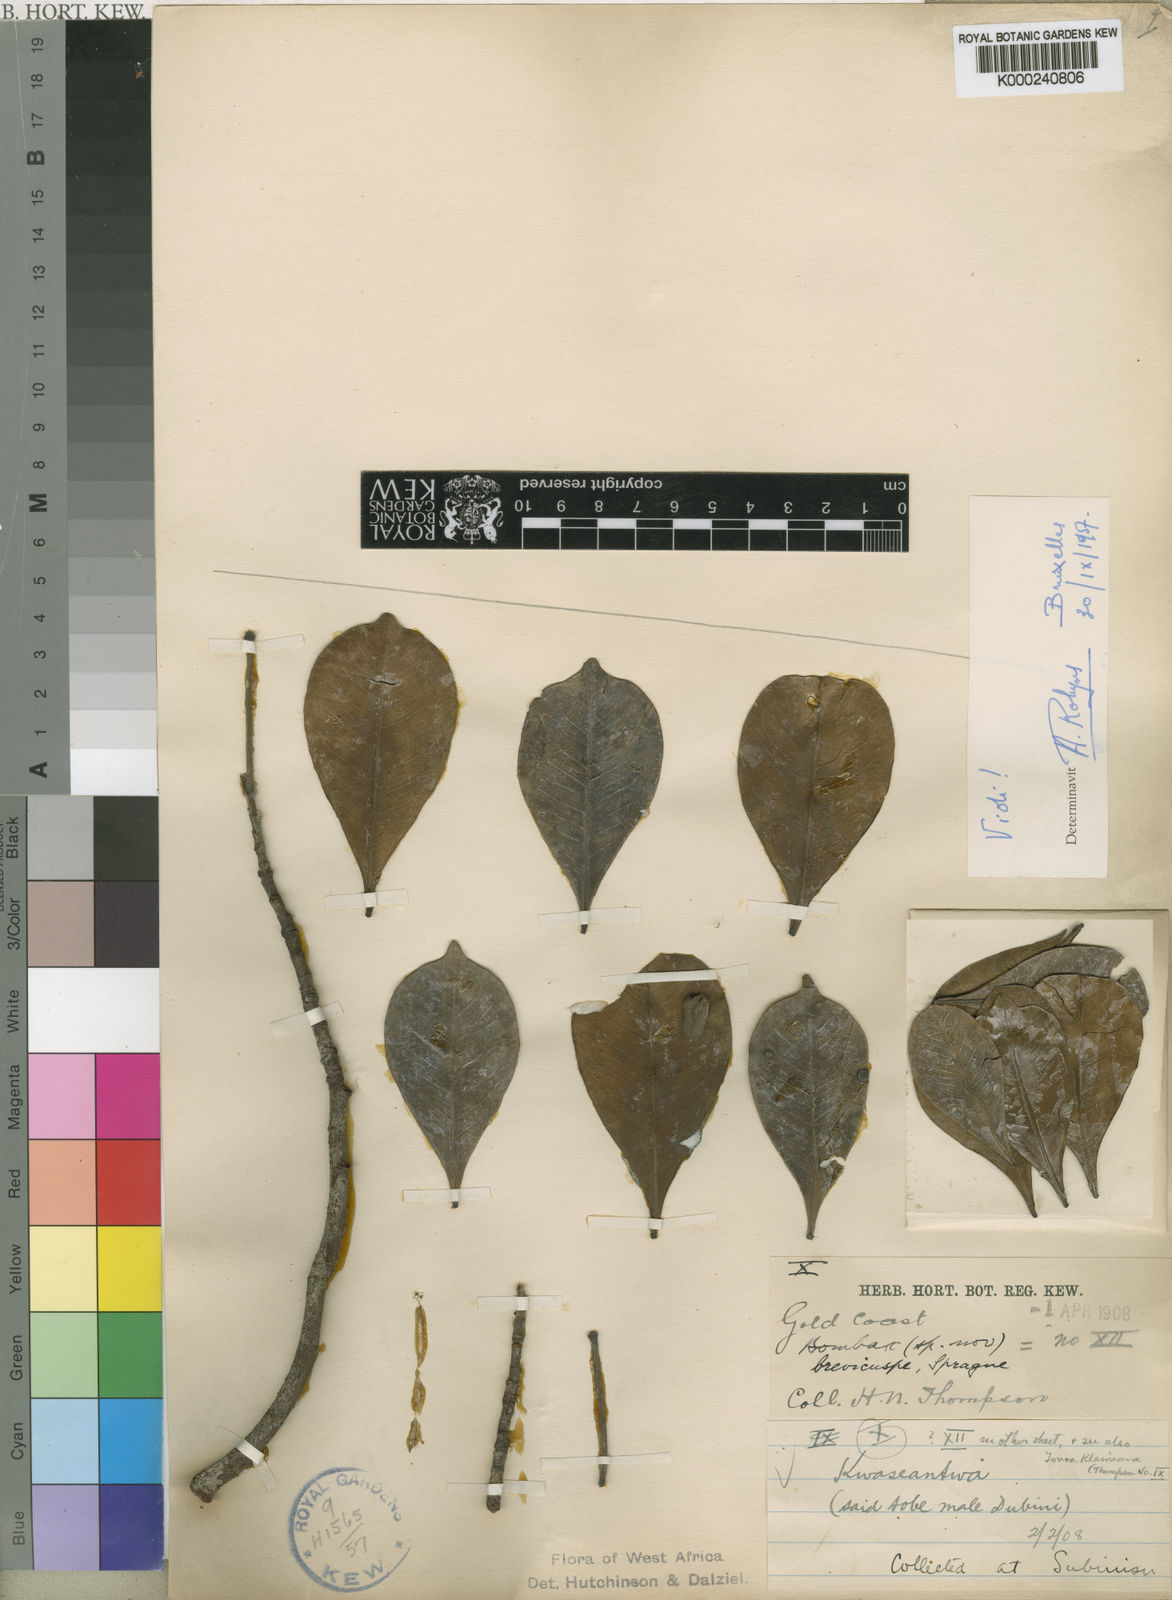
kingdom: Plantae
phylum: Tracheophyta
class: Magnoliopsida
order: Malvales
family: Malvaceae
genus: Rhodognaphalon
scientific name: Rhodognaphalon brevicuspe
